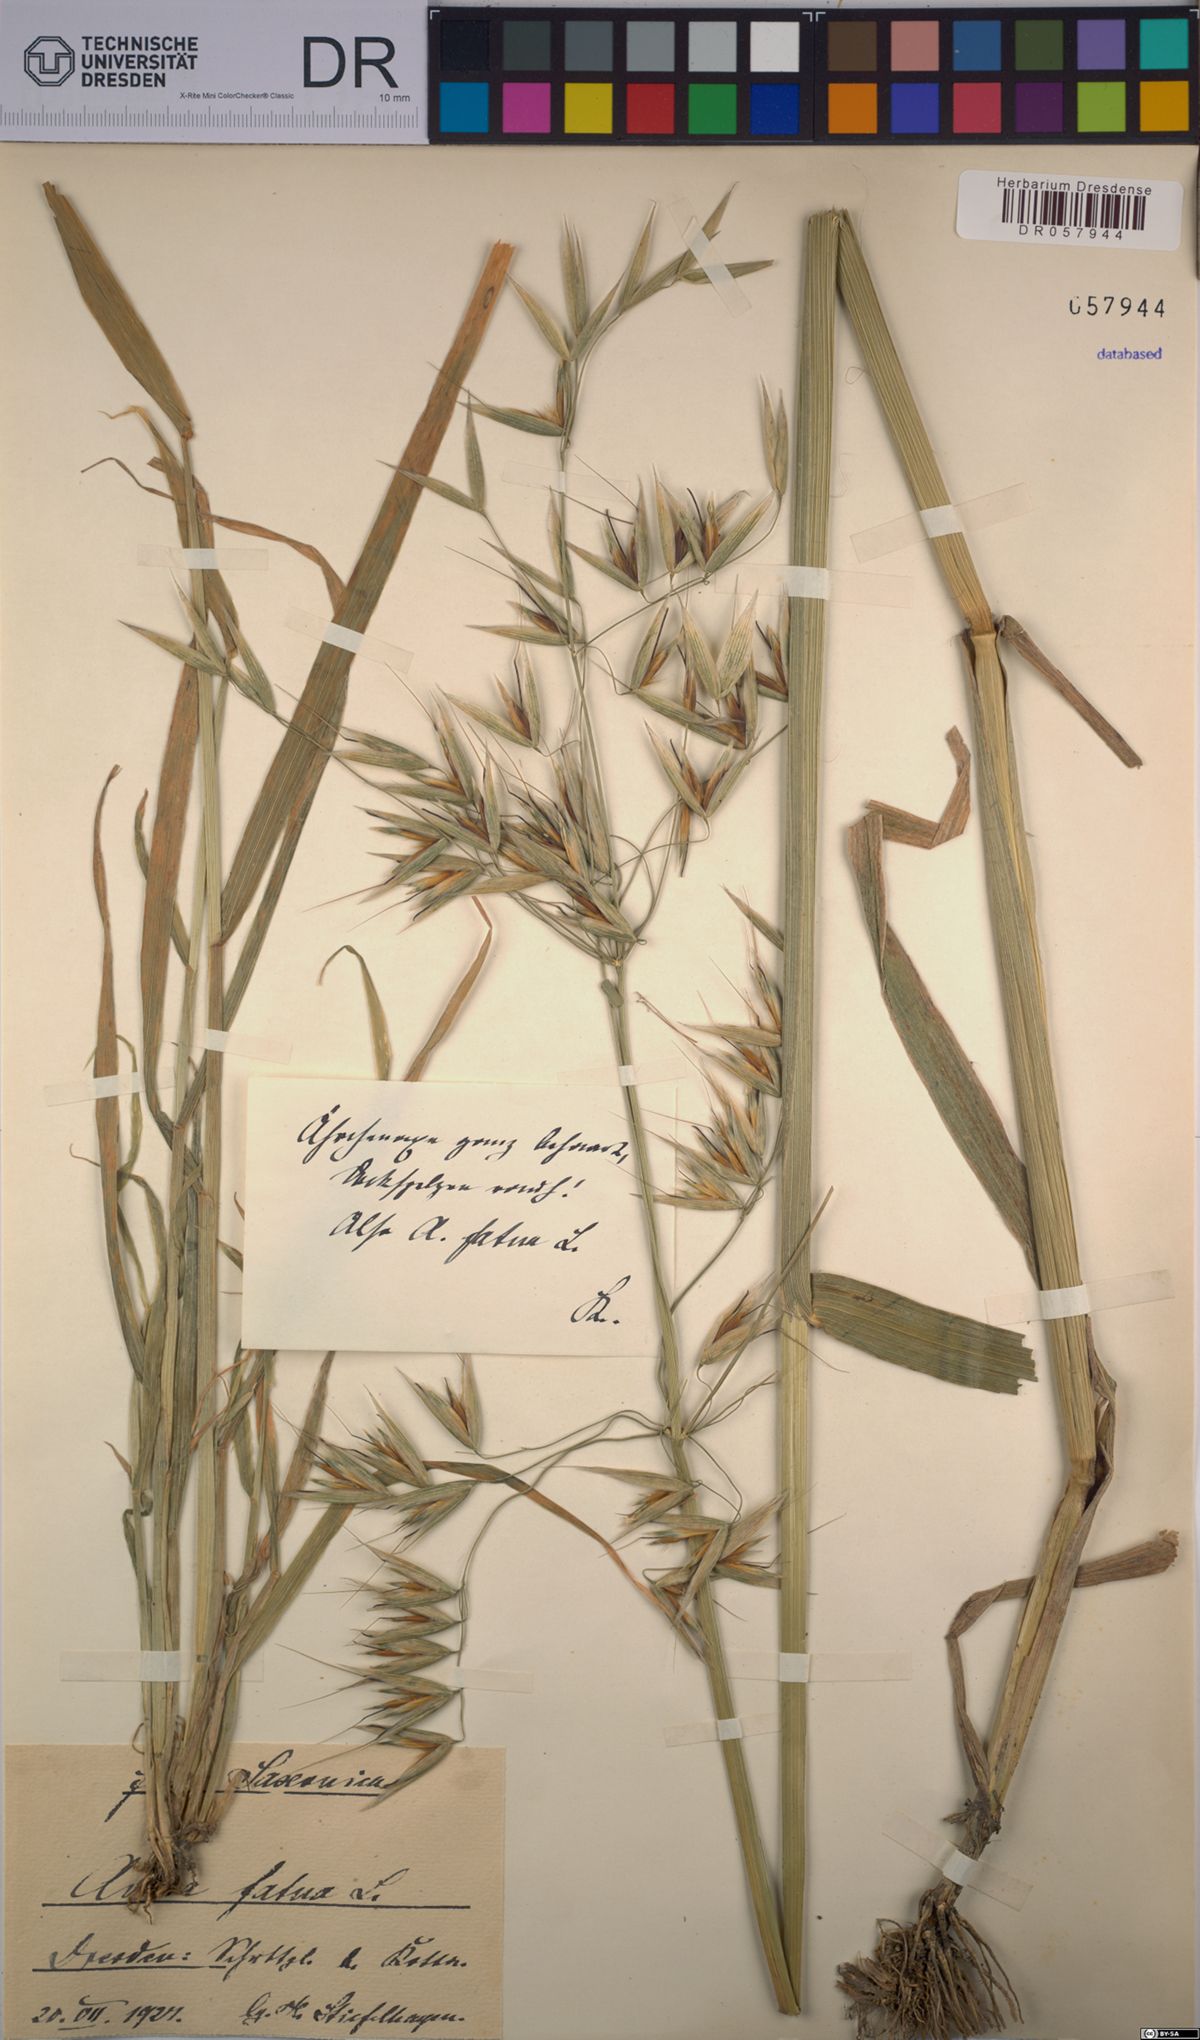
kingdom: Plantae
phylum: Tracheophyta
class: Liliopsida
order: Poales
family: Poaceae
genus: Avena
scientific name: Avena fatua
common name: Wild oat
